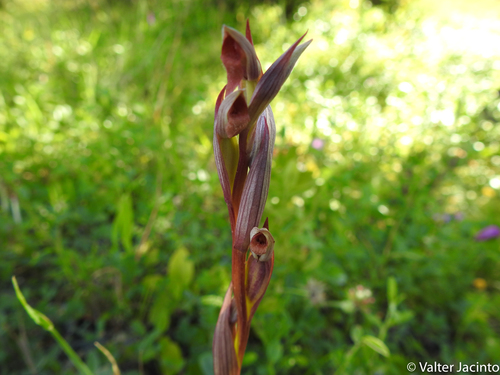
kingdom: Plantae
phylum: Tracheophyta
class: Liliopsida
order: Asparagales
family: Orchidaceae
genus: Serapias
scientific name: Serapias parviflora
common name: Small-flowered tongue-orchid
